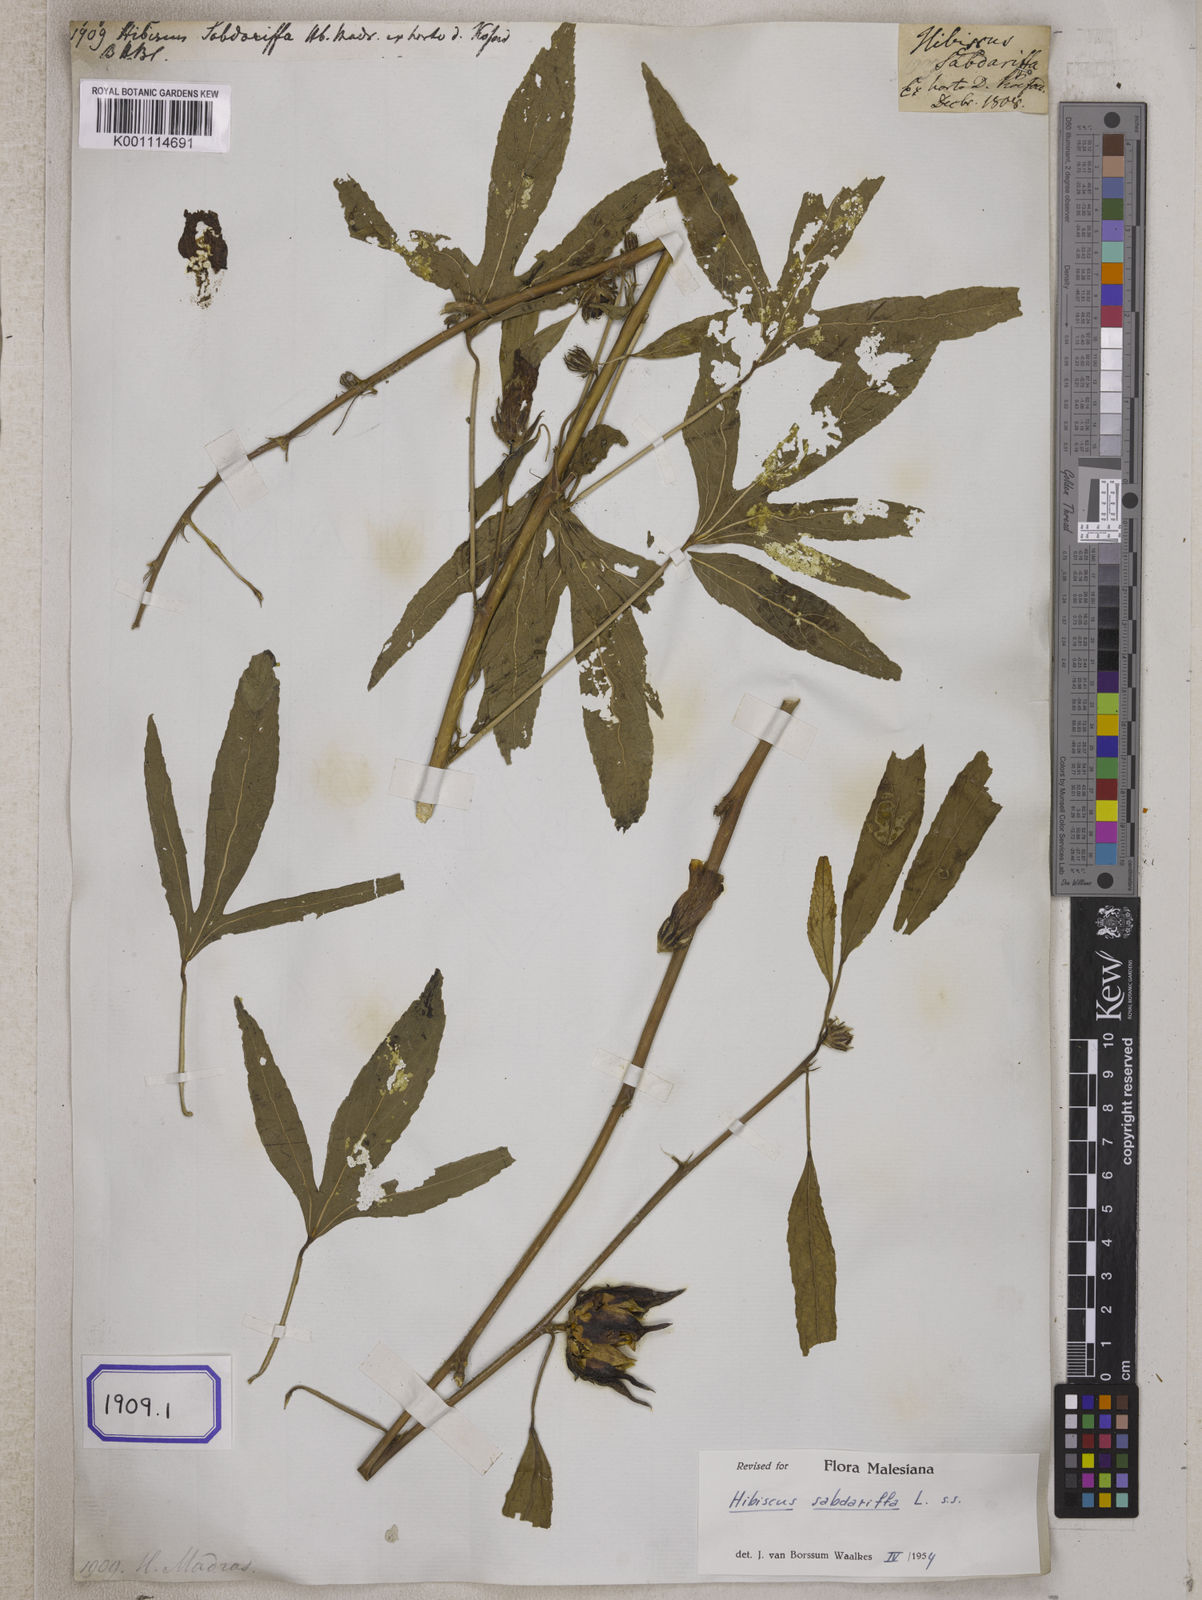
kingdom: Plantae
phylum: Tracheophyta
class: Magnoliopsida
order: Malvales
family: Malvaceae
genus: Hibiscus
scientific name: Hibiscus sabdariffa
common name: Roselle
